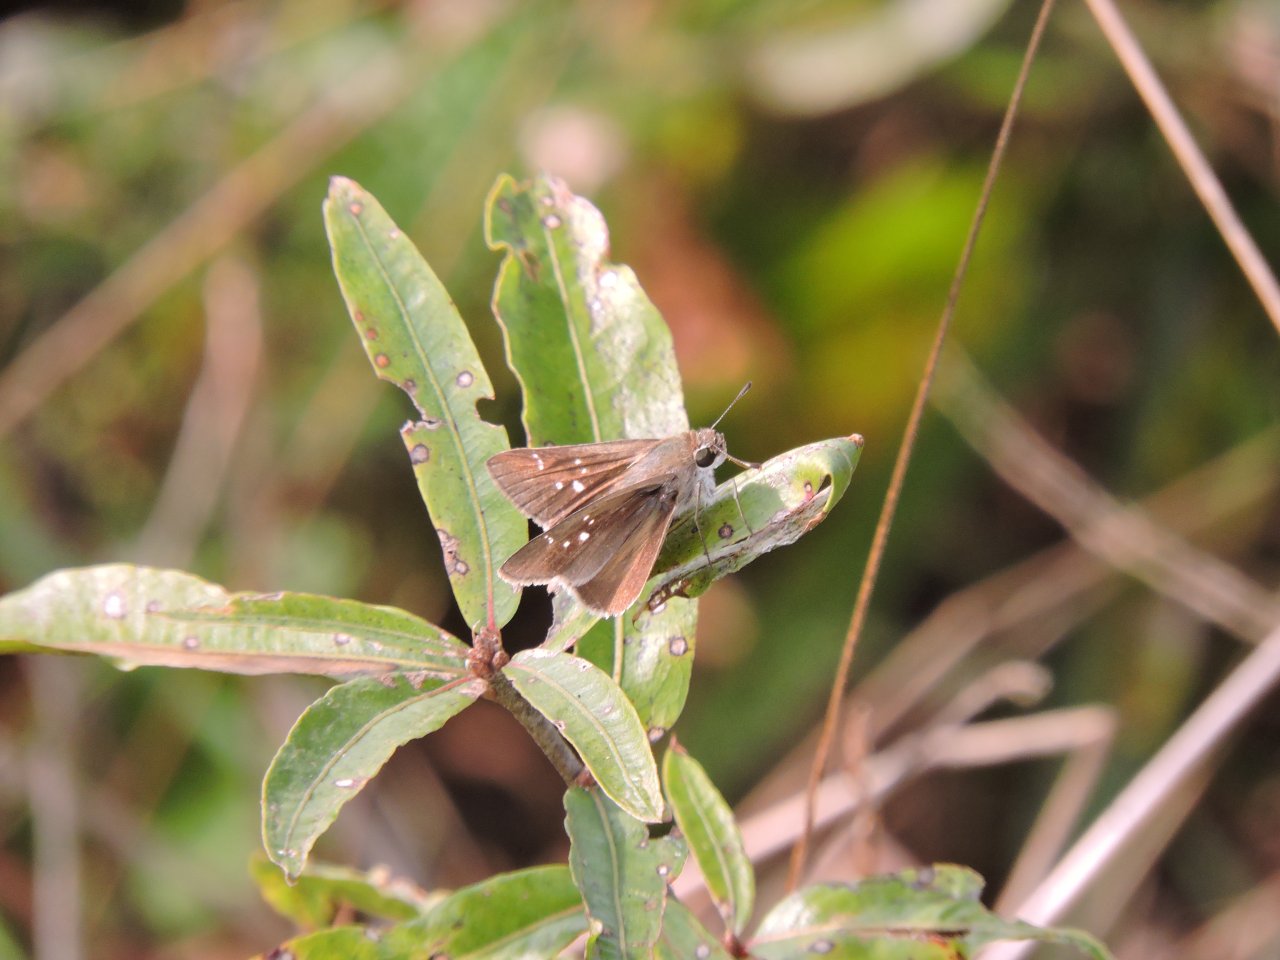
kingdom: Animalia
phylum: Arthropoda
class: Insecta
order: Lepidoptera
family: Hesperiidae
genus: Lerodea
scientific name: Lerodea eufala
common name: Eufala Skipper
